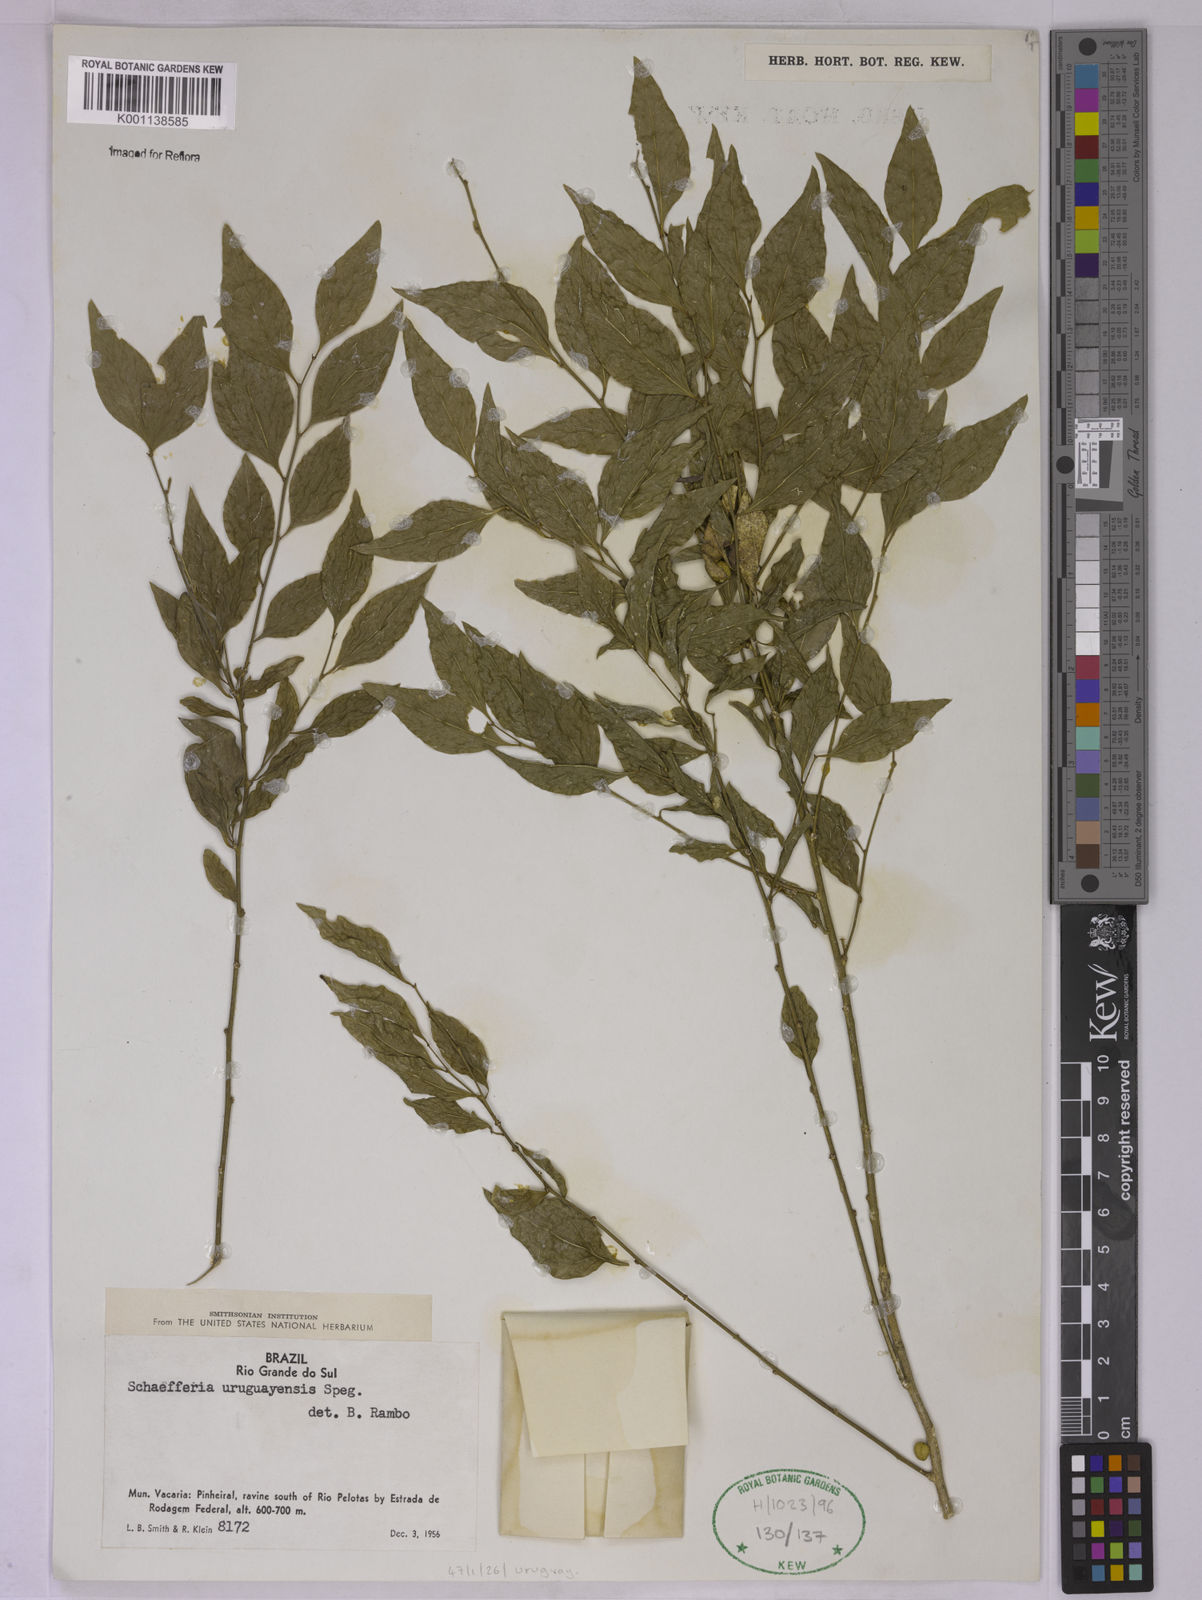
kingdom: Plantae
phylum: Tracheophyta
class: Magnoliopsida
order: Celastrales
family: Celastraceae
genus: Schaefferia
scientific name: Schaefferia argentinensis
